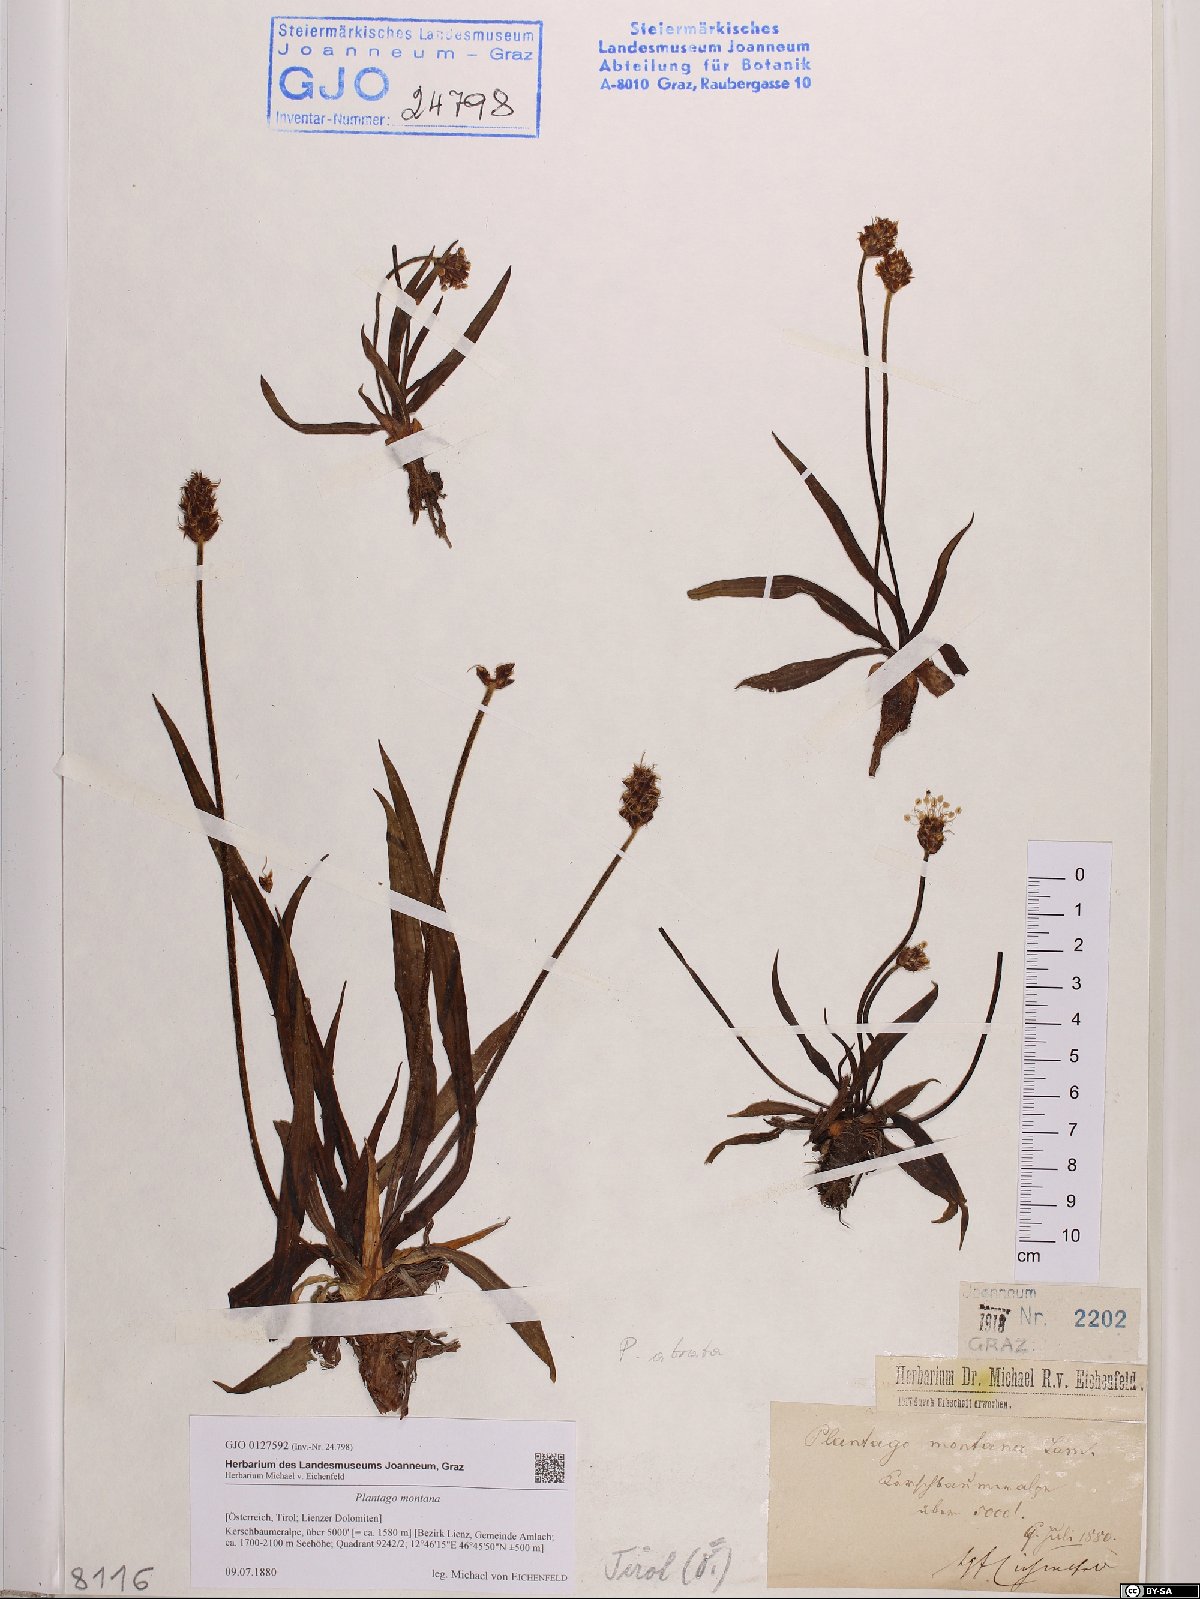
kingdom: Plantae
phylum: Tracheophyta
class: Magnoliopsida
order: Lamiales
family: Plantaginaceae
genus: Plantago
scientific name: Plantago atrata
